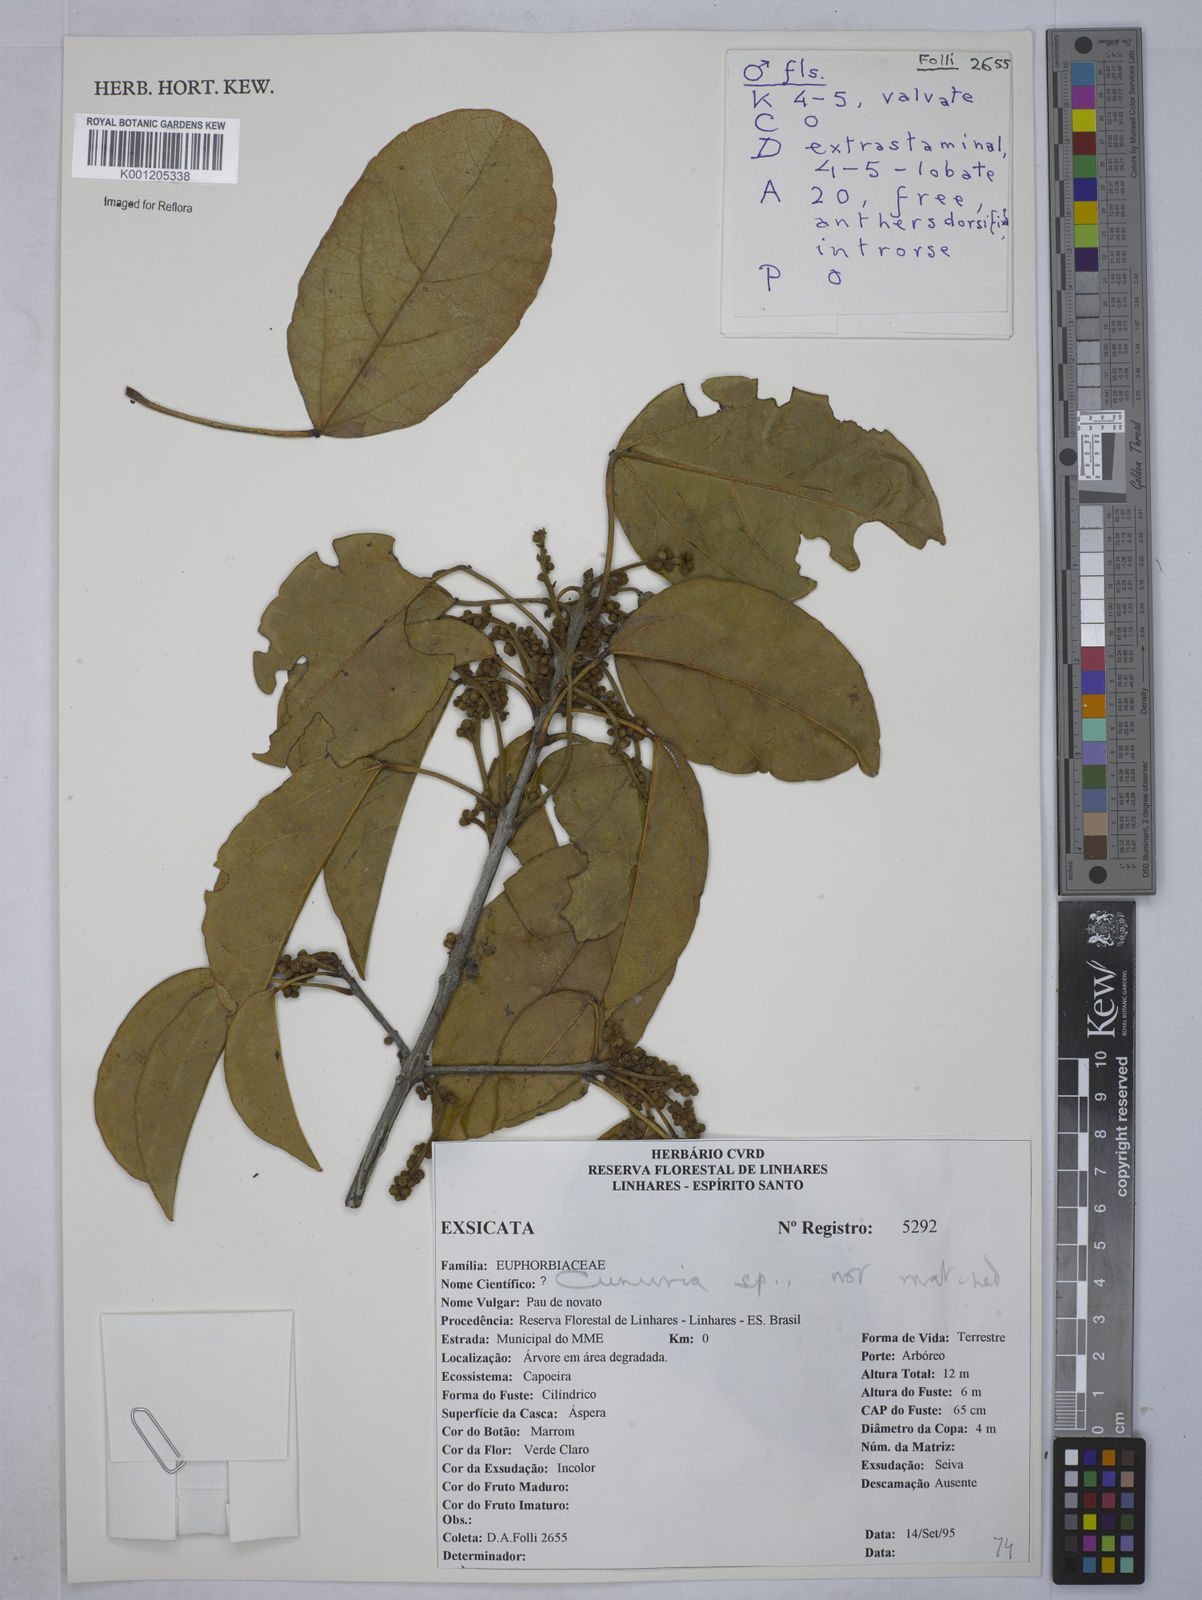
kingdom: Plantae
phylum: Tracheophyta
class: Magnoliopsida
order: Malpighiales
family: Euphorbiaceae
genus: Micrandra
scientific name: Micrandra
